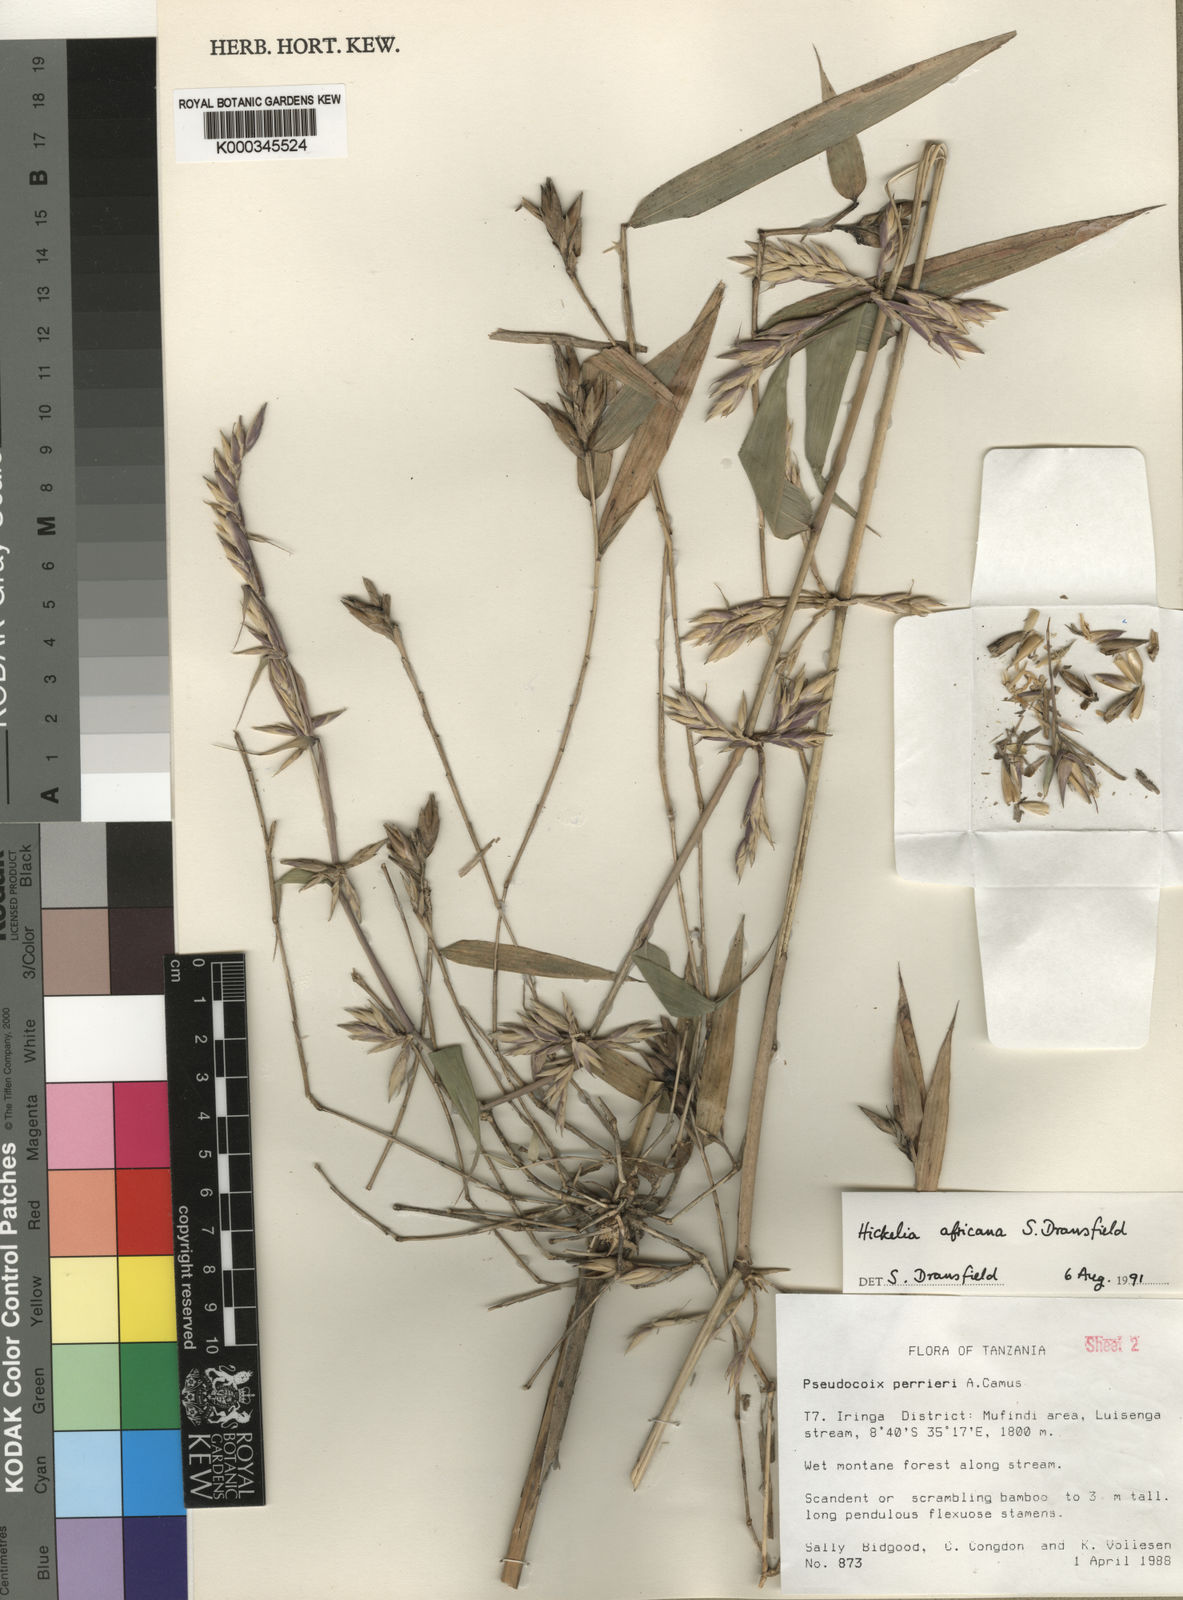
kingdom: Plantae
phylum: Tracheophyta
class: Liliopsida
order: Poales
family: Poaceae
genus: Hickelia
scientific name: Hickelia africana
